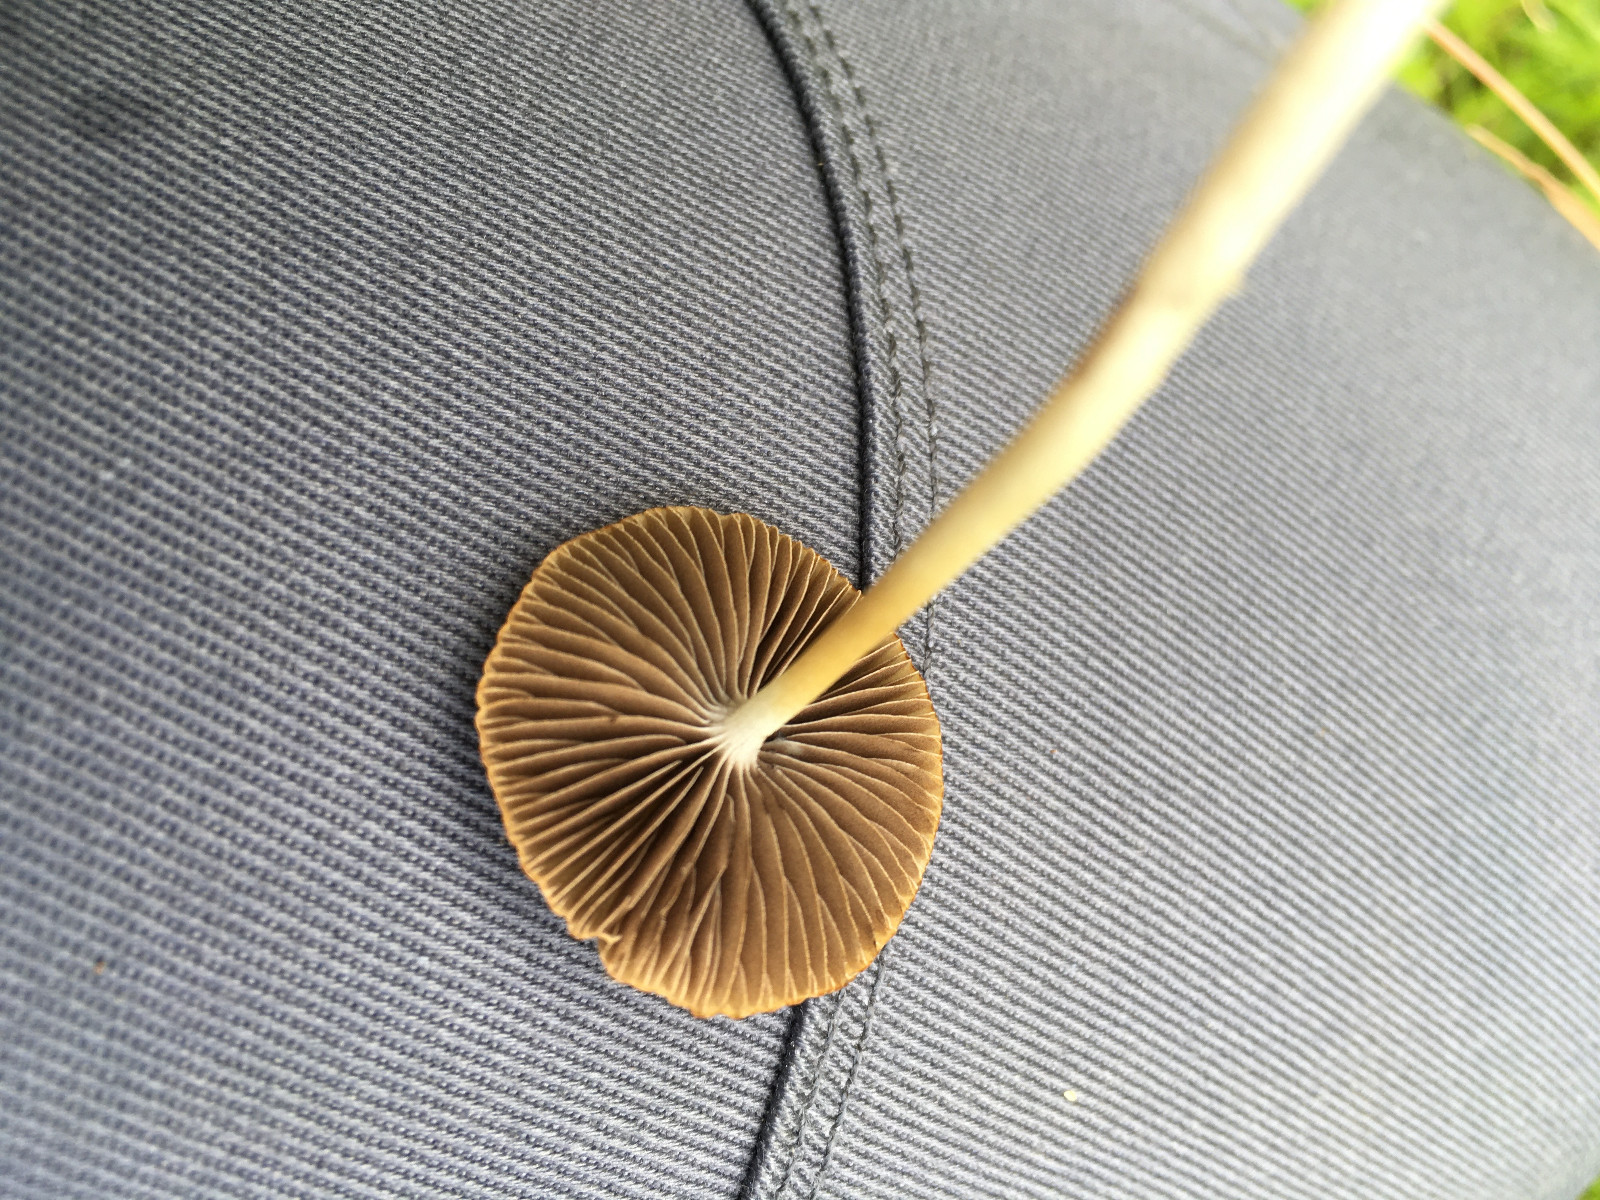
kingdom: Fungi
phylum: Basidiomycota
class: Agaricomycetes
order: Agaricales
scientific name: Agaricales
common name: champignonordenen
